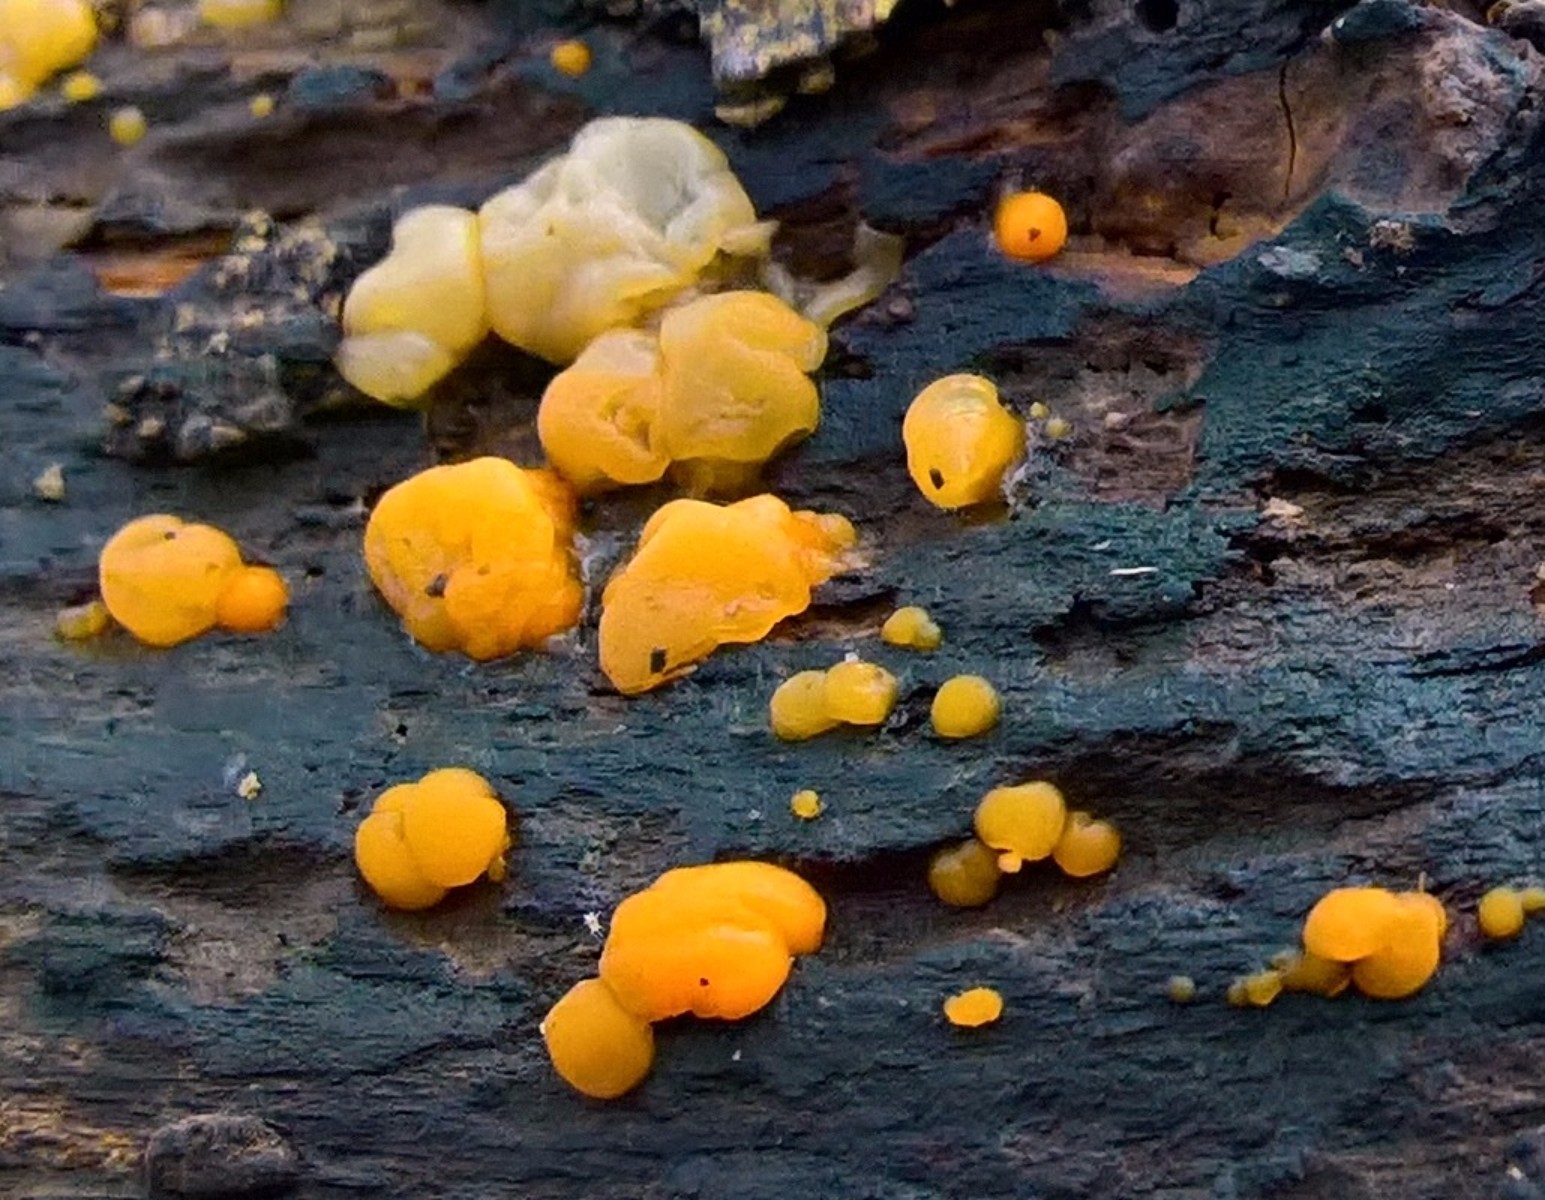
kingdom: Fungi
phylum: Basidiomycota
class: Dacrymycetes
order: Dacrymycetales
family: Dacrymycetaceae
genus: Dacrymyces
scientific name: Dacrymyces stillatus
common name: almindelig tåresvamp
